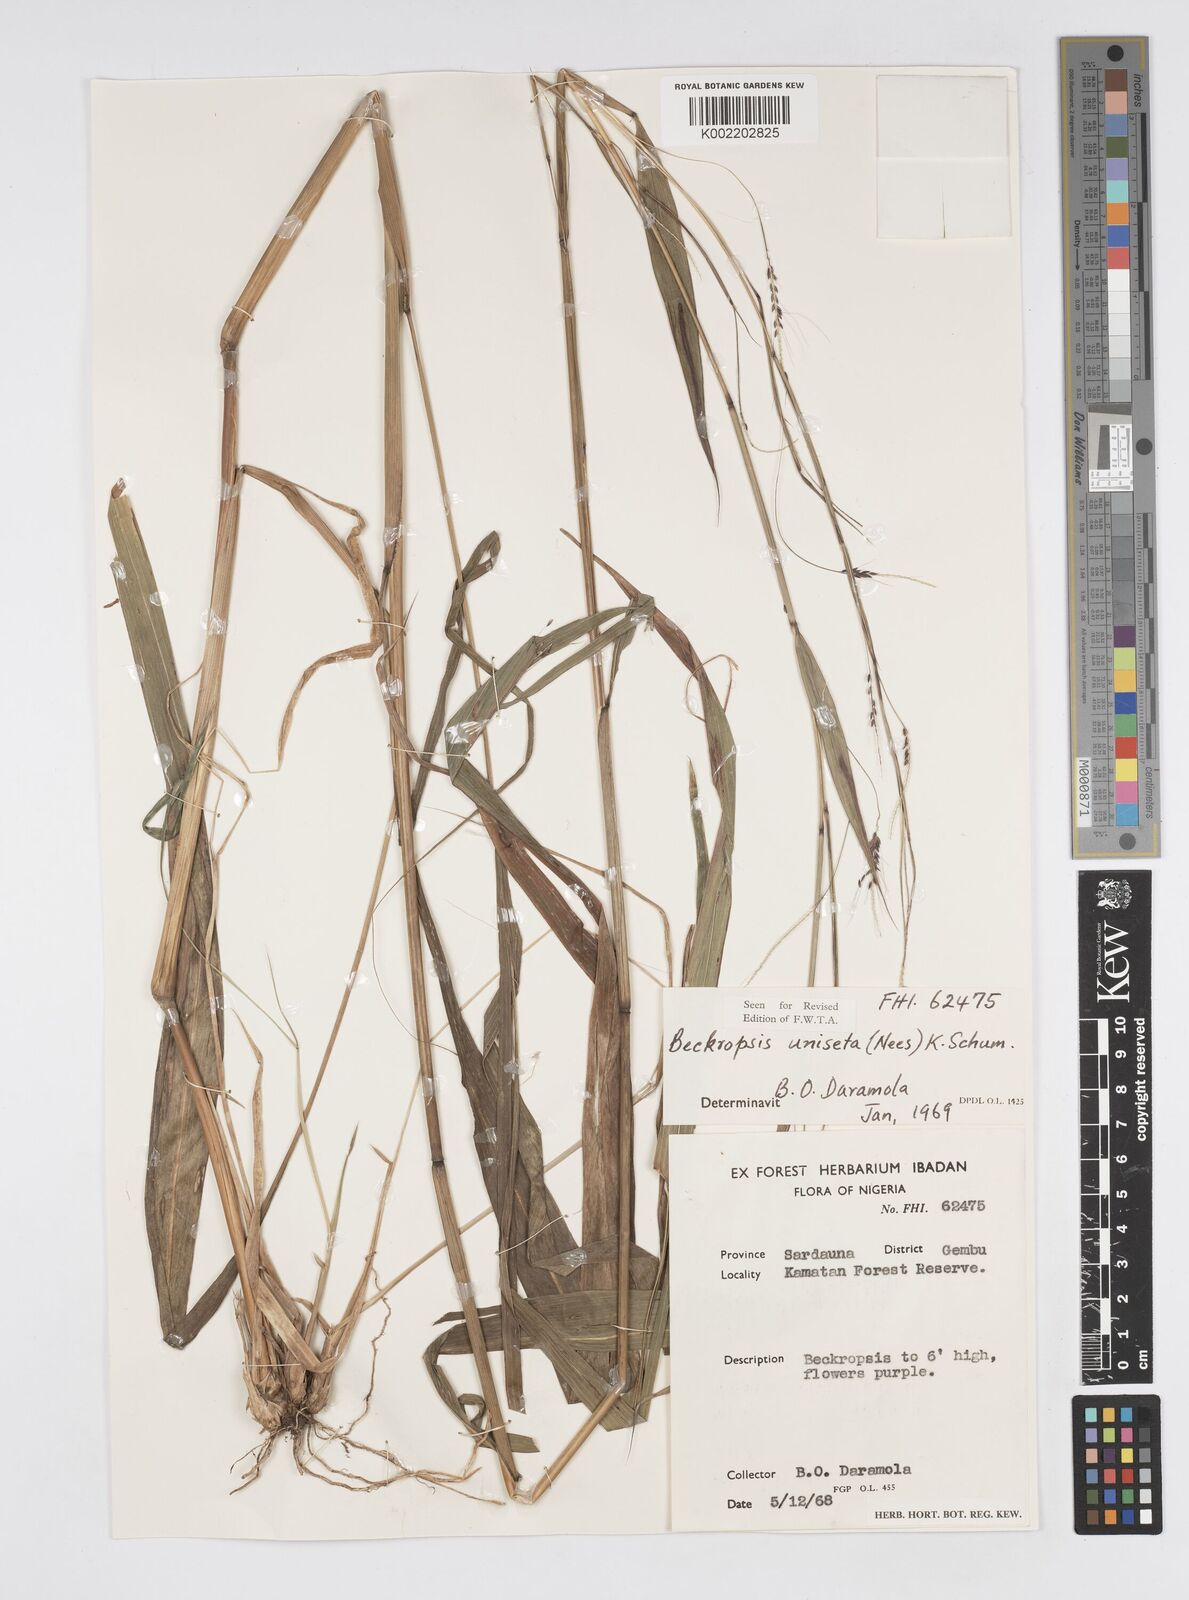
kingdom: Plantae
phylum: Tracheophyta
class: Liliopsida
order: Poales
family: Poaceae
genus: Cenchrus
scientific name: Cenchrus unisetus
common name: Natal grass
